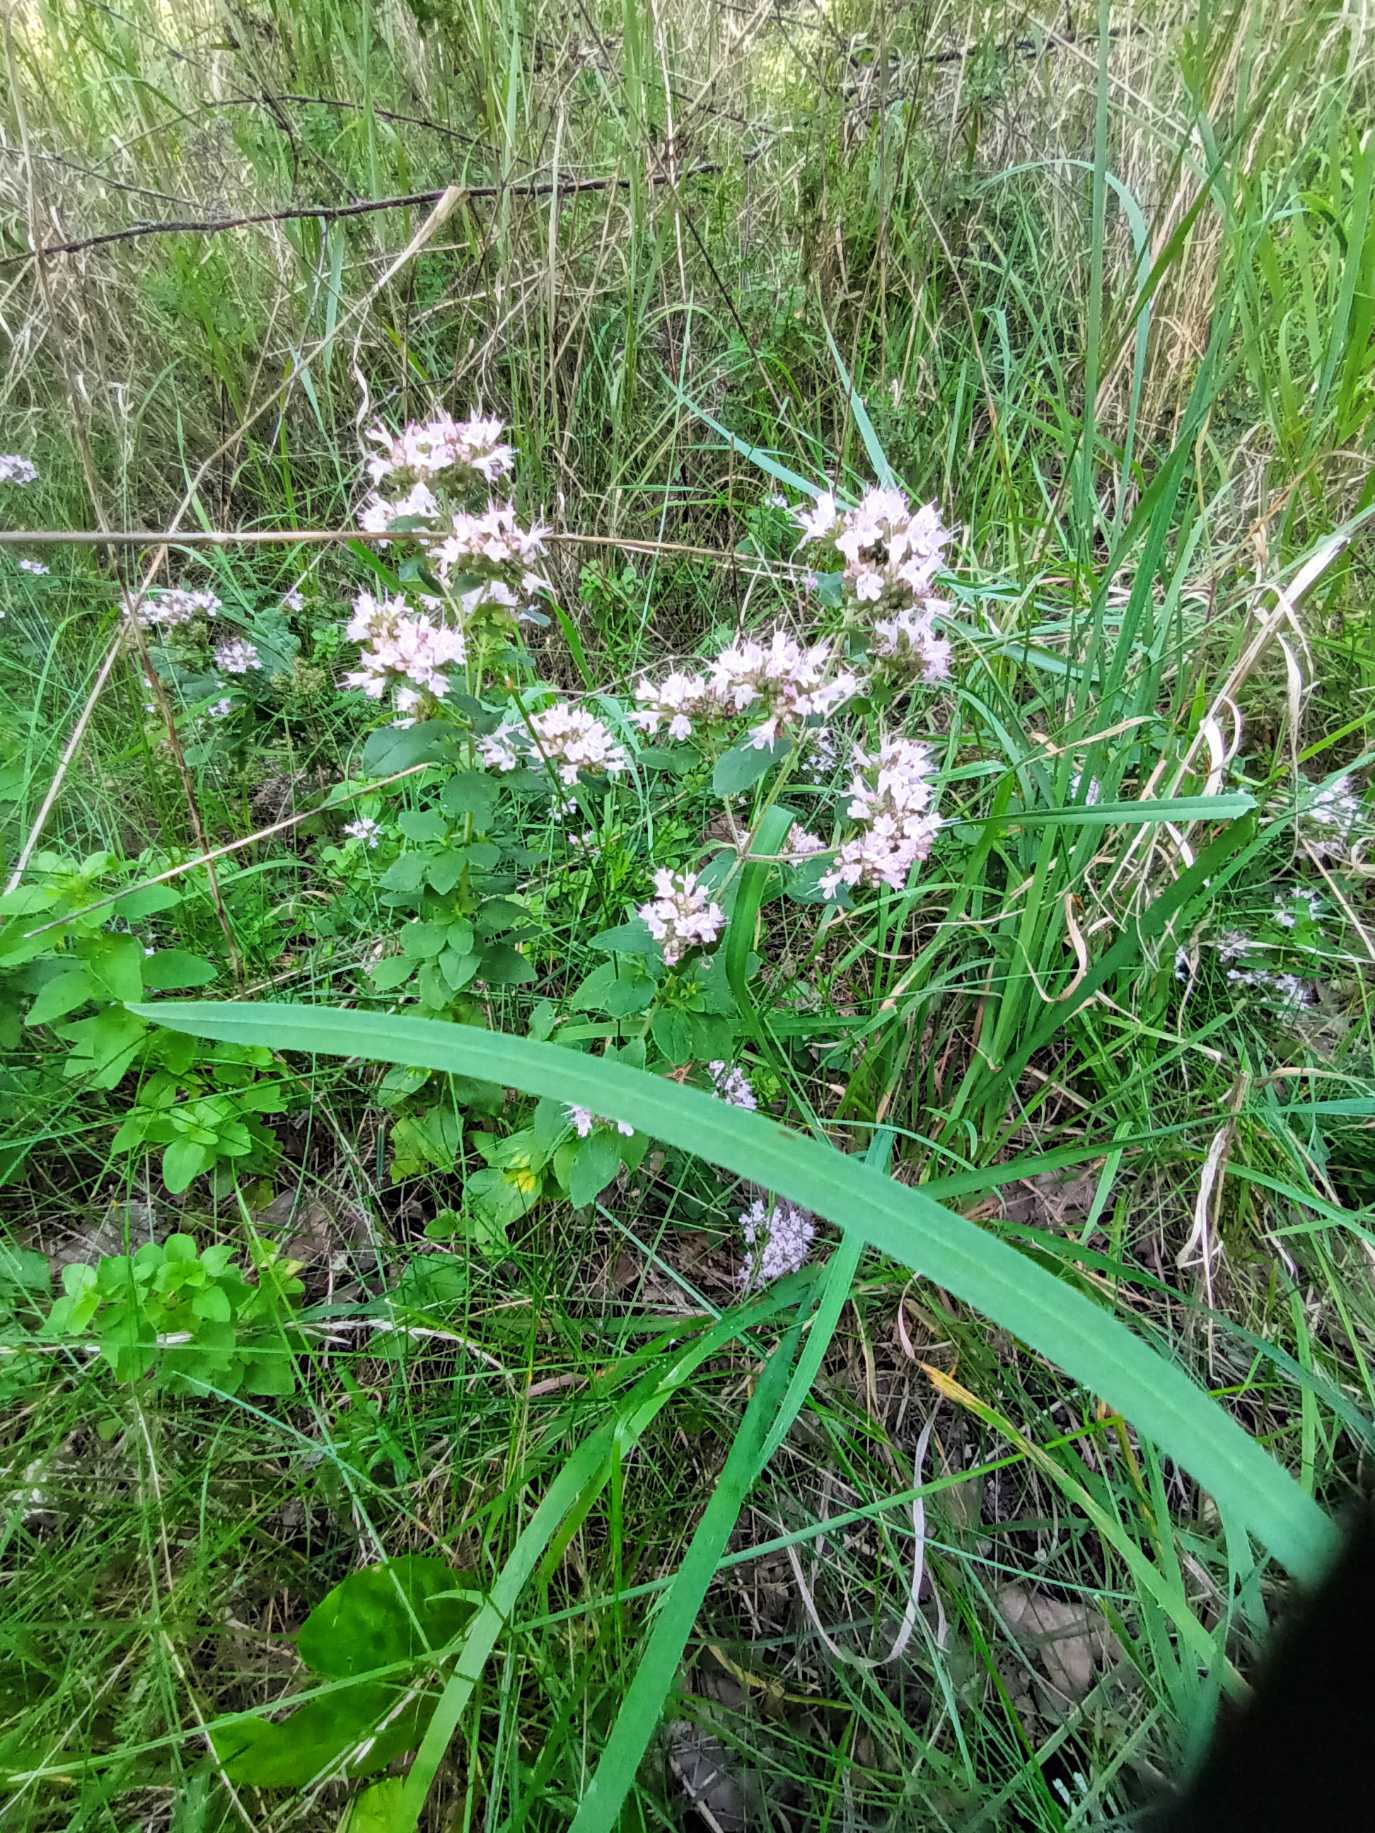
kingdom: Plantae
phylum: Tracheophyta
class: Magnoliopsida
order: Lamiales
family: Lamiaceae
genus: Origanum
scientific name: Origanum vulgare
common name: Merian
